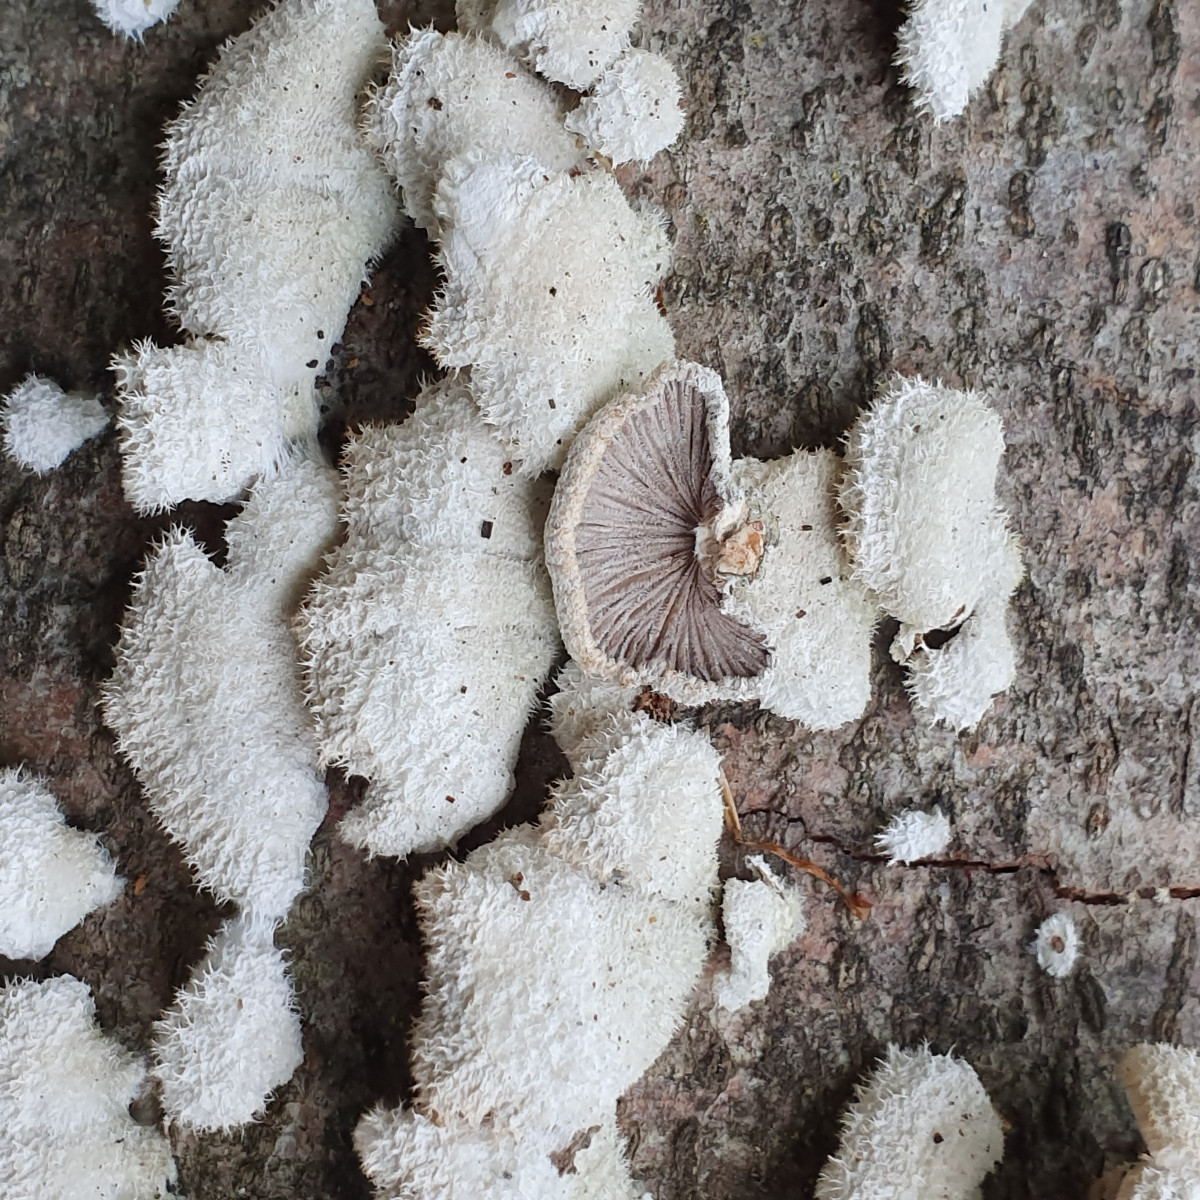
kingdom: Fungi
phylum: Basidiomycota
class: Agaricomycetes
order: Agaricales
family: Schizophyllaceae
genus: Schizophyllum
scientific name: Schizophyllum commune
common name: kløvblad
